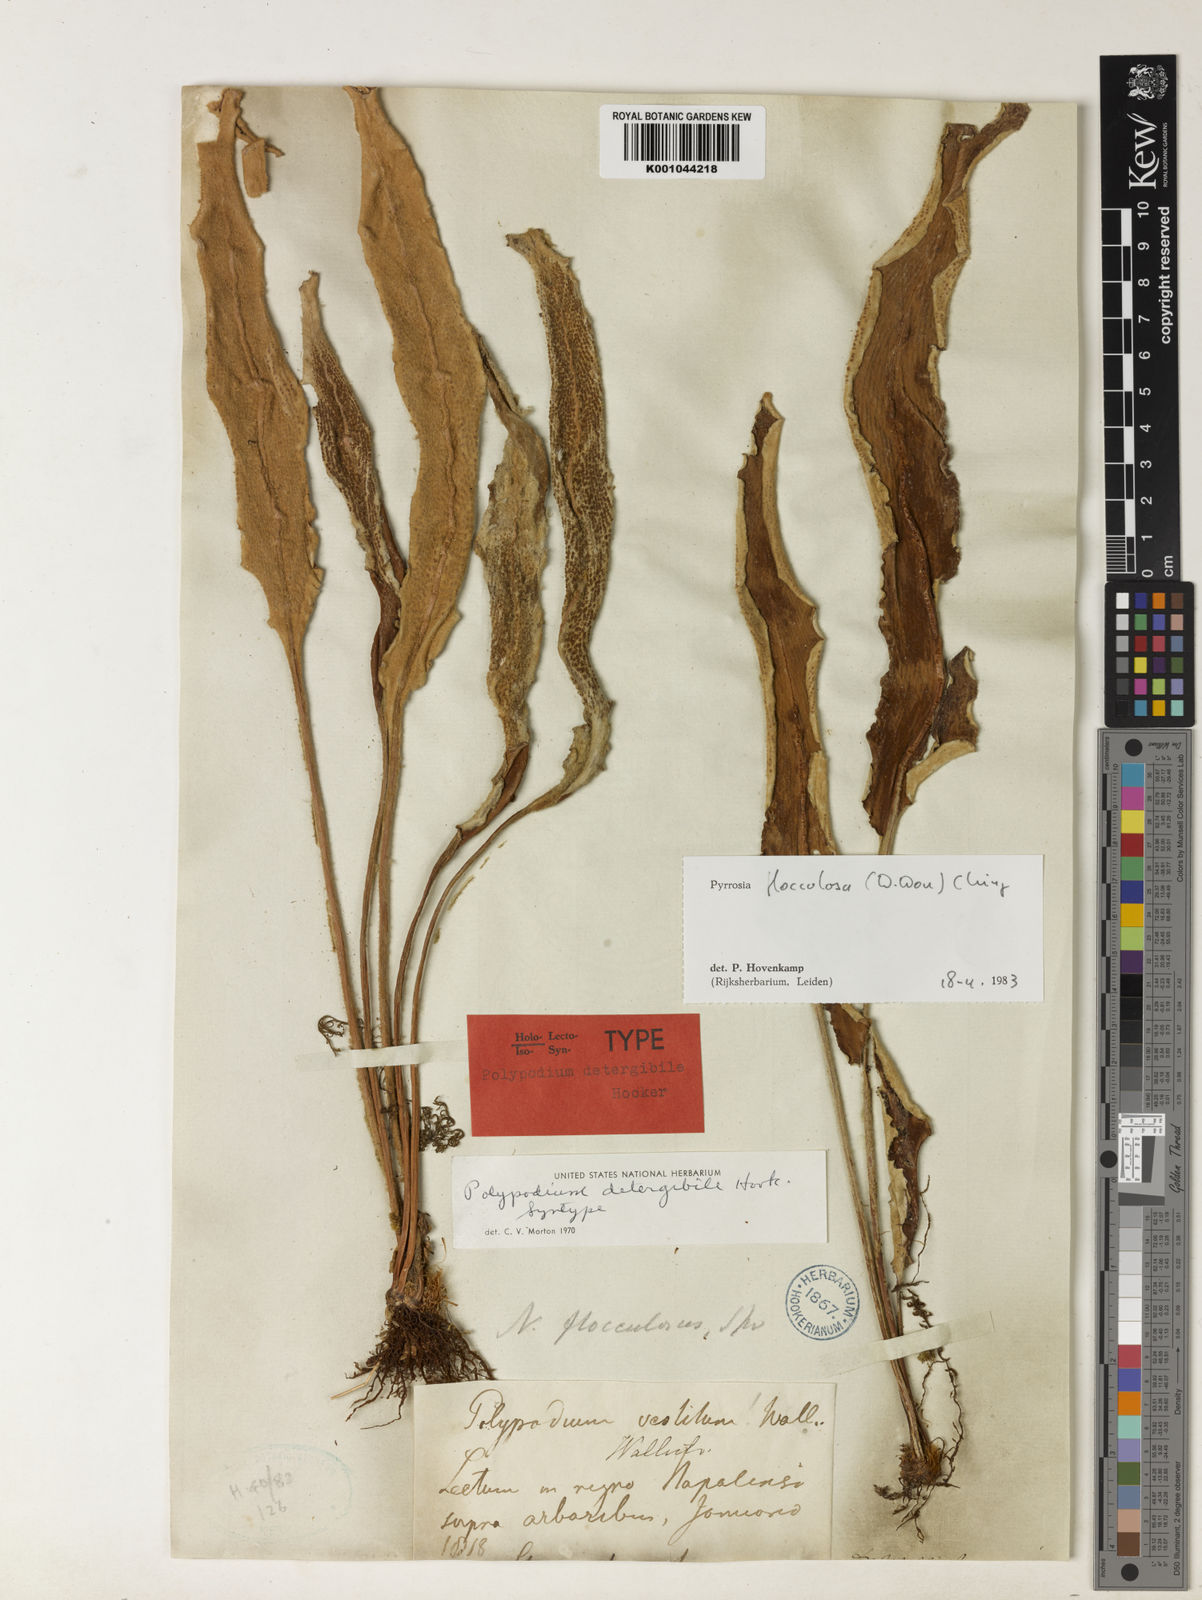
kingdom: Plantae
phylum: Tracheophyta
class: Polypodiopsida
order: Polypodiales
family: Polypodiaceae
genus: Pyrrosia
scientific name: Pyrrosia flocculosa
